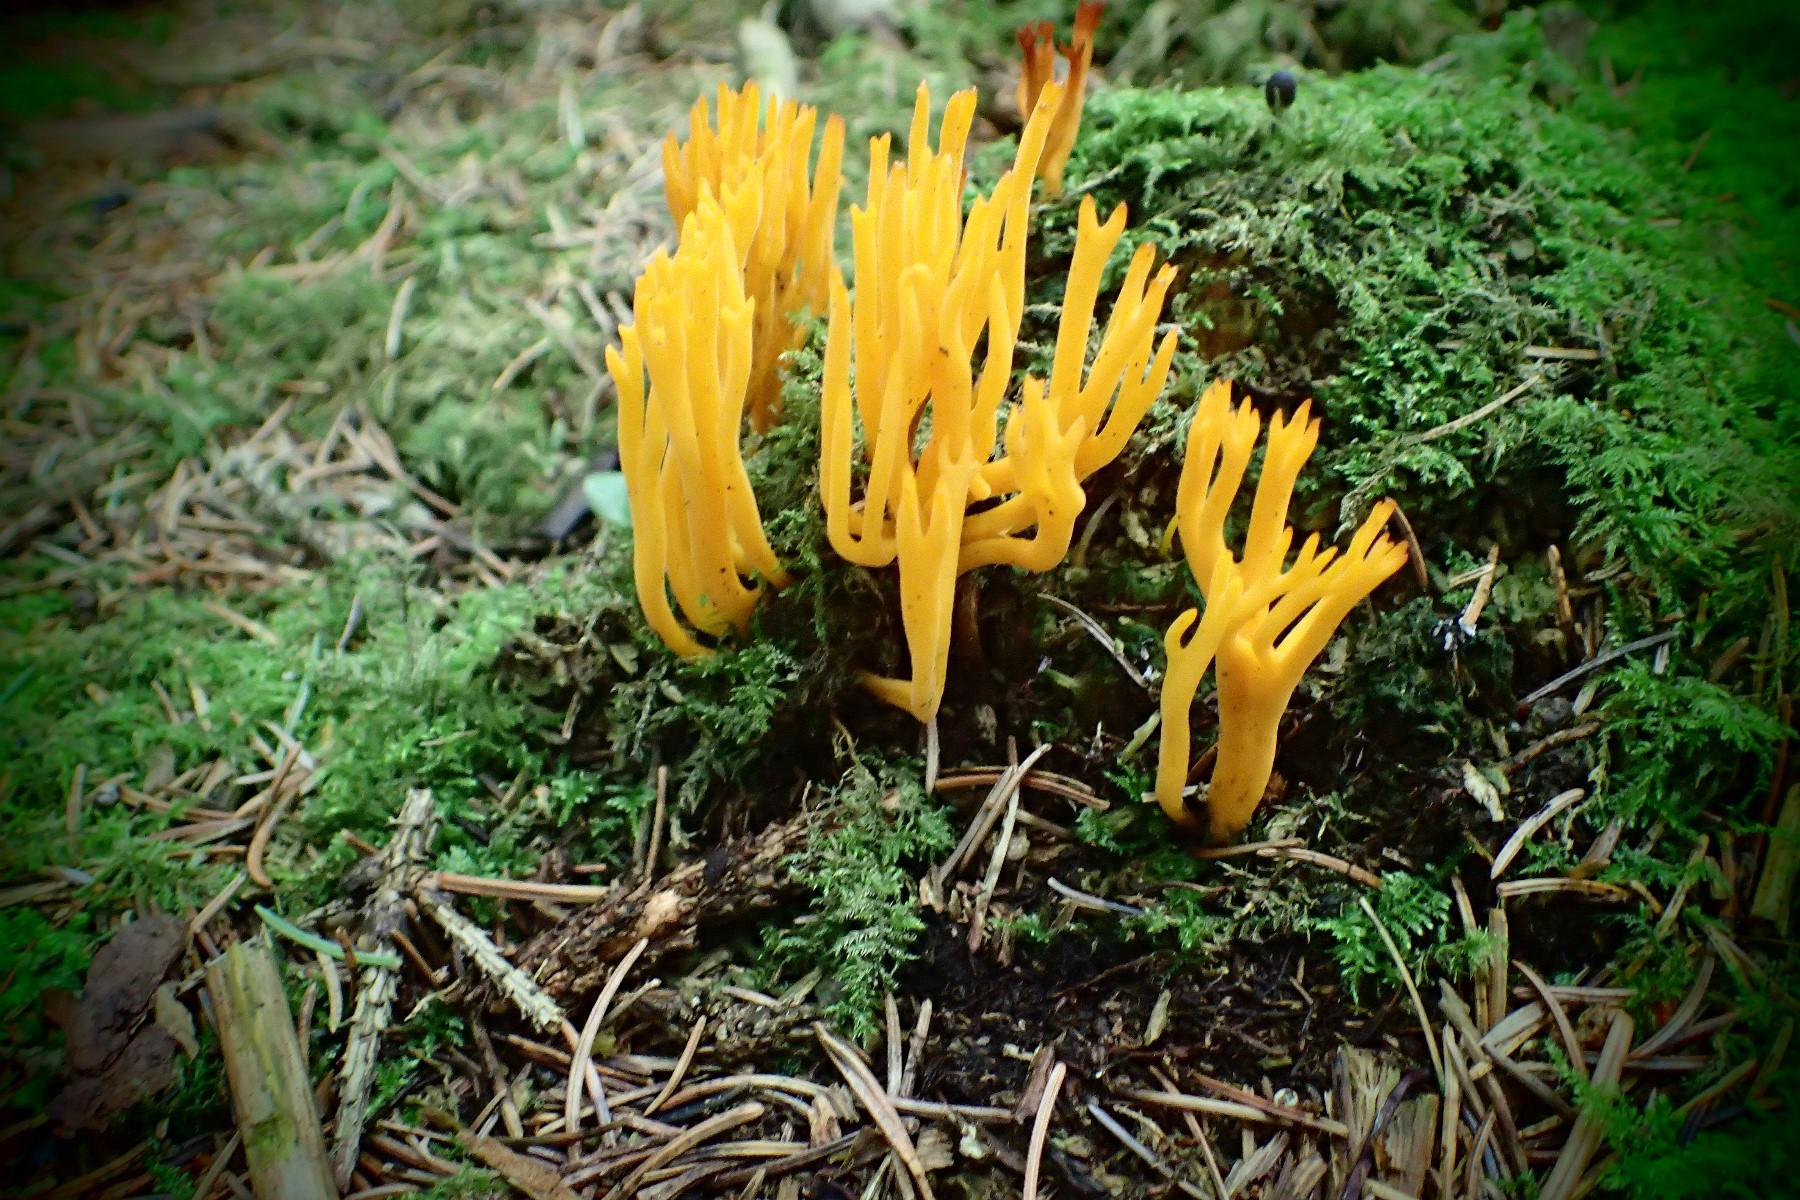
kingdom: Fungi
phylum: Basidiomycota
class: Dacrymycetes
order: Dacrymycetales
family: Dacrymycetaceae
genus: Calocera
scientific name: Calocera viscosa
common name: almindelig guldgaffel
